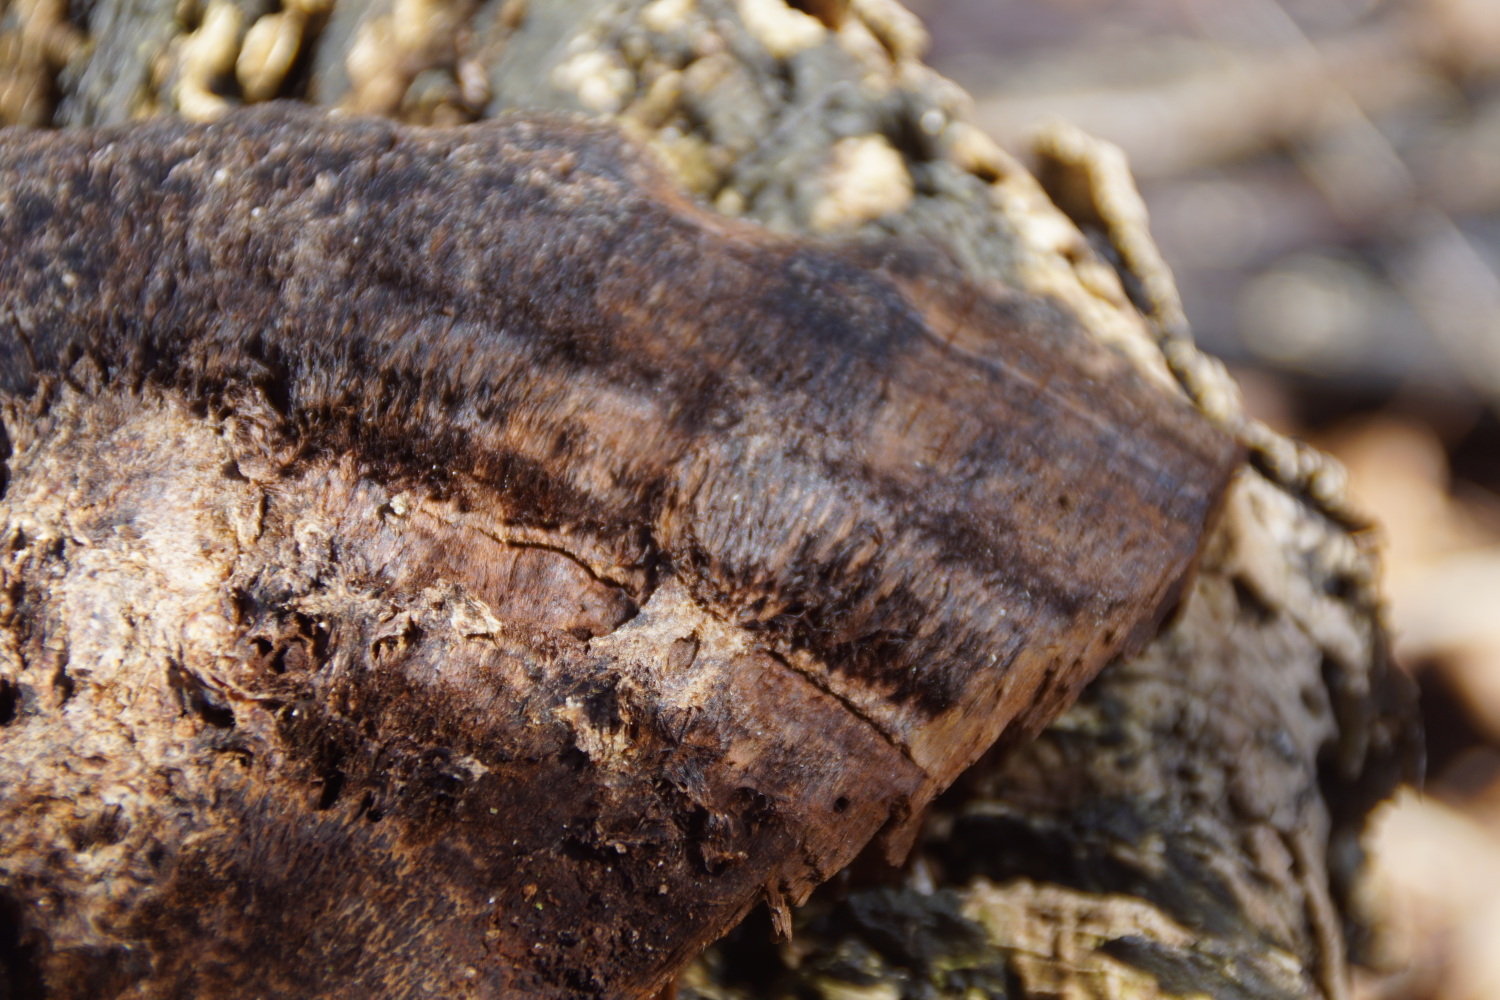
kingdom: Fungi
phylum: Basidiomycota
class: Agaricomycetes
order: Hymenochaetales
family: Hymenochaetaceae
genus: Inonotus
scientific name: Inonotus cuticularis
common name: kroghåret spejlporesvamp
